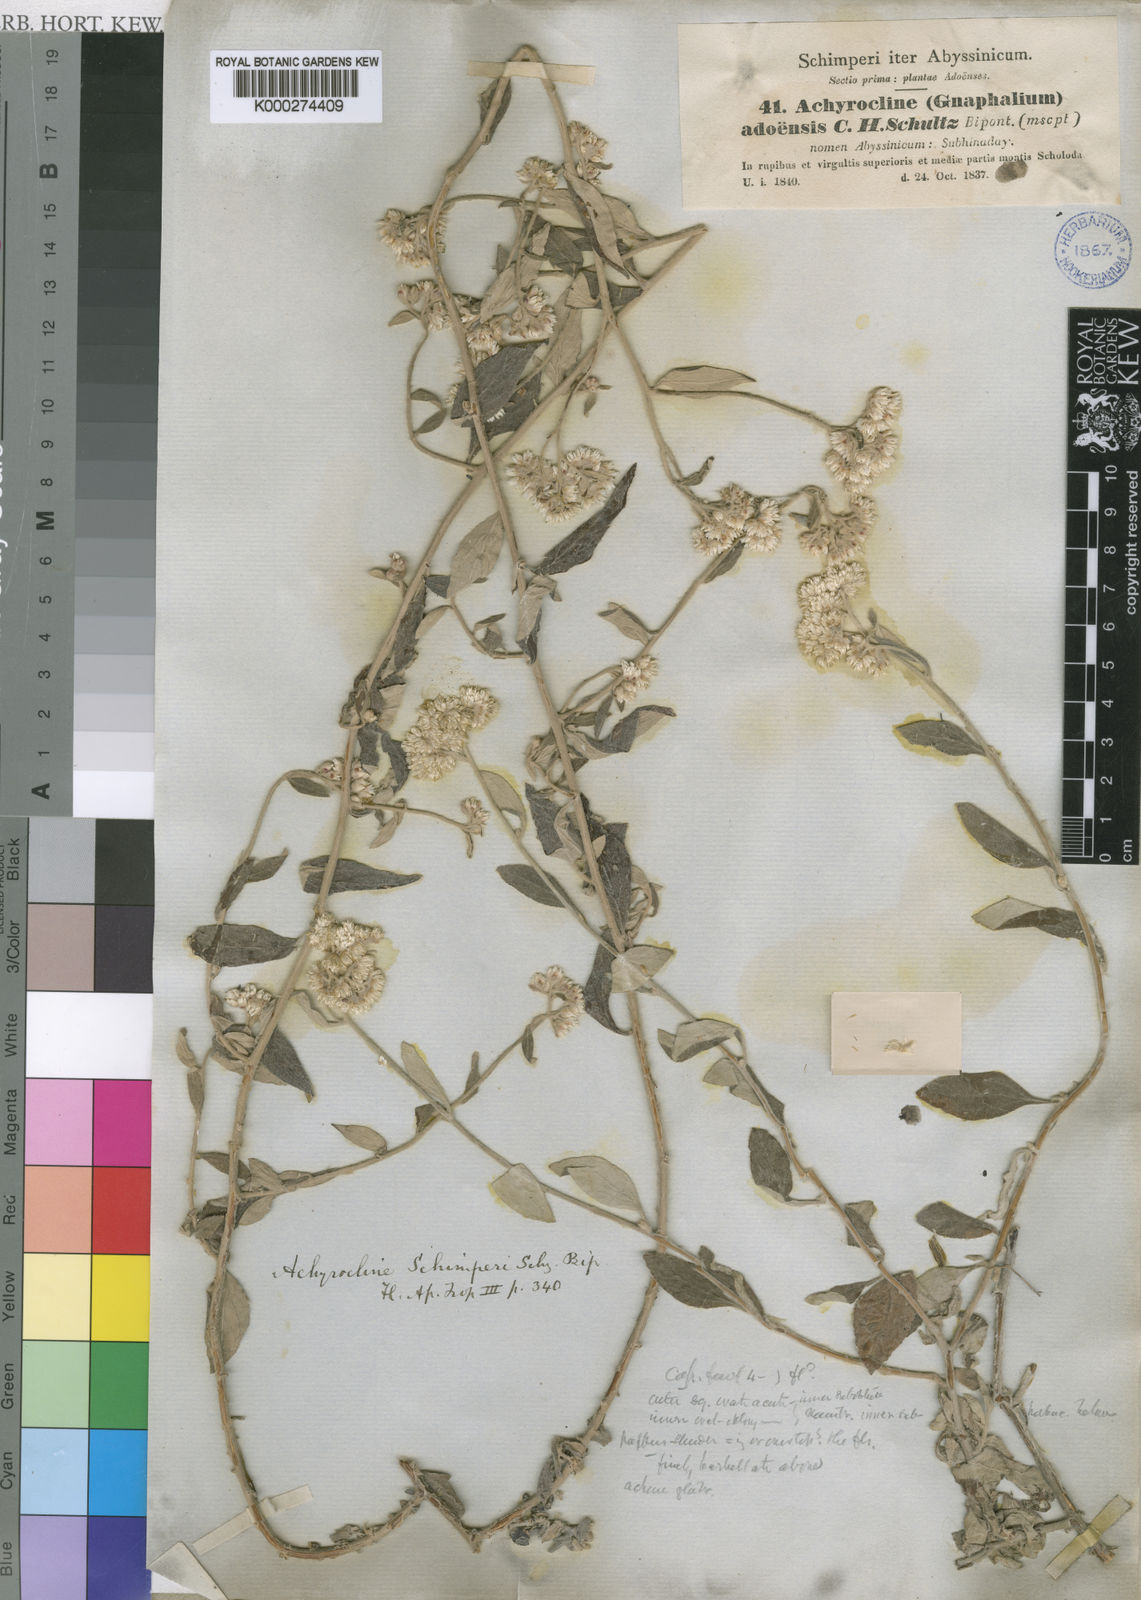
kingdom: Plantae
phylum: Tracheophyta
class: Magnoliopsida
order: Asterales
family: Asteraceae
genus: Helichrysum
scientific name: Helichrysum schimperi
